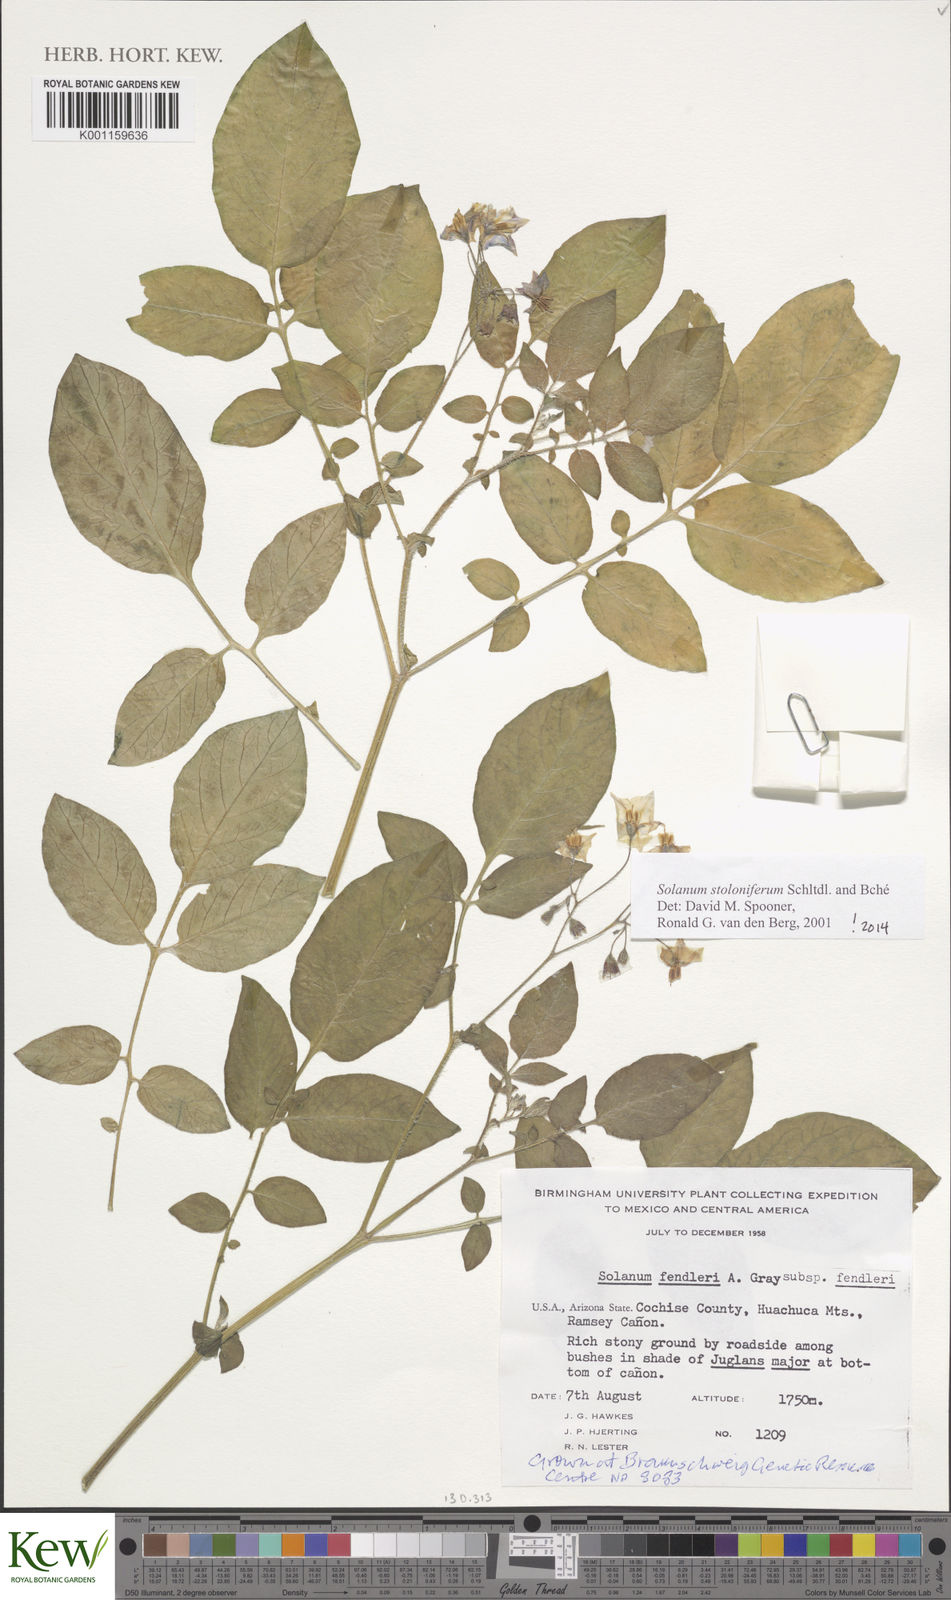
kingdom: Plantae
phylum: Tracheophyta
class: Magnoliopsida
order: Solanales
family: Solanaceae
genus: Solanum
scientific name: Solanum stoloniferum
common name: Fendler's nighshade
